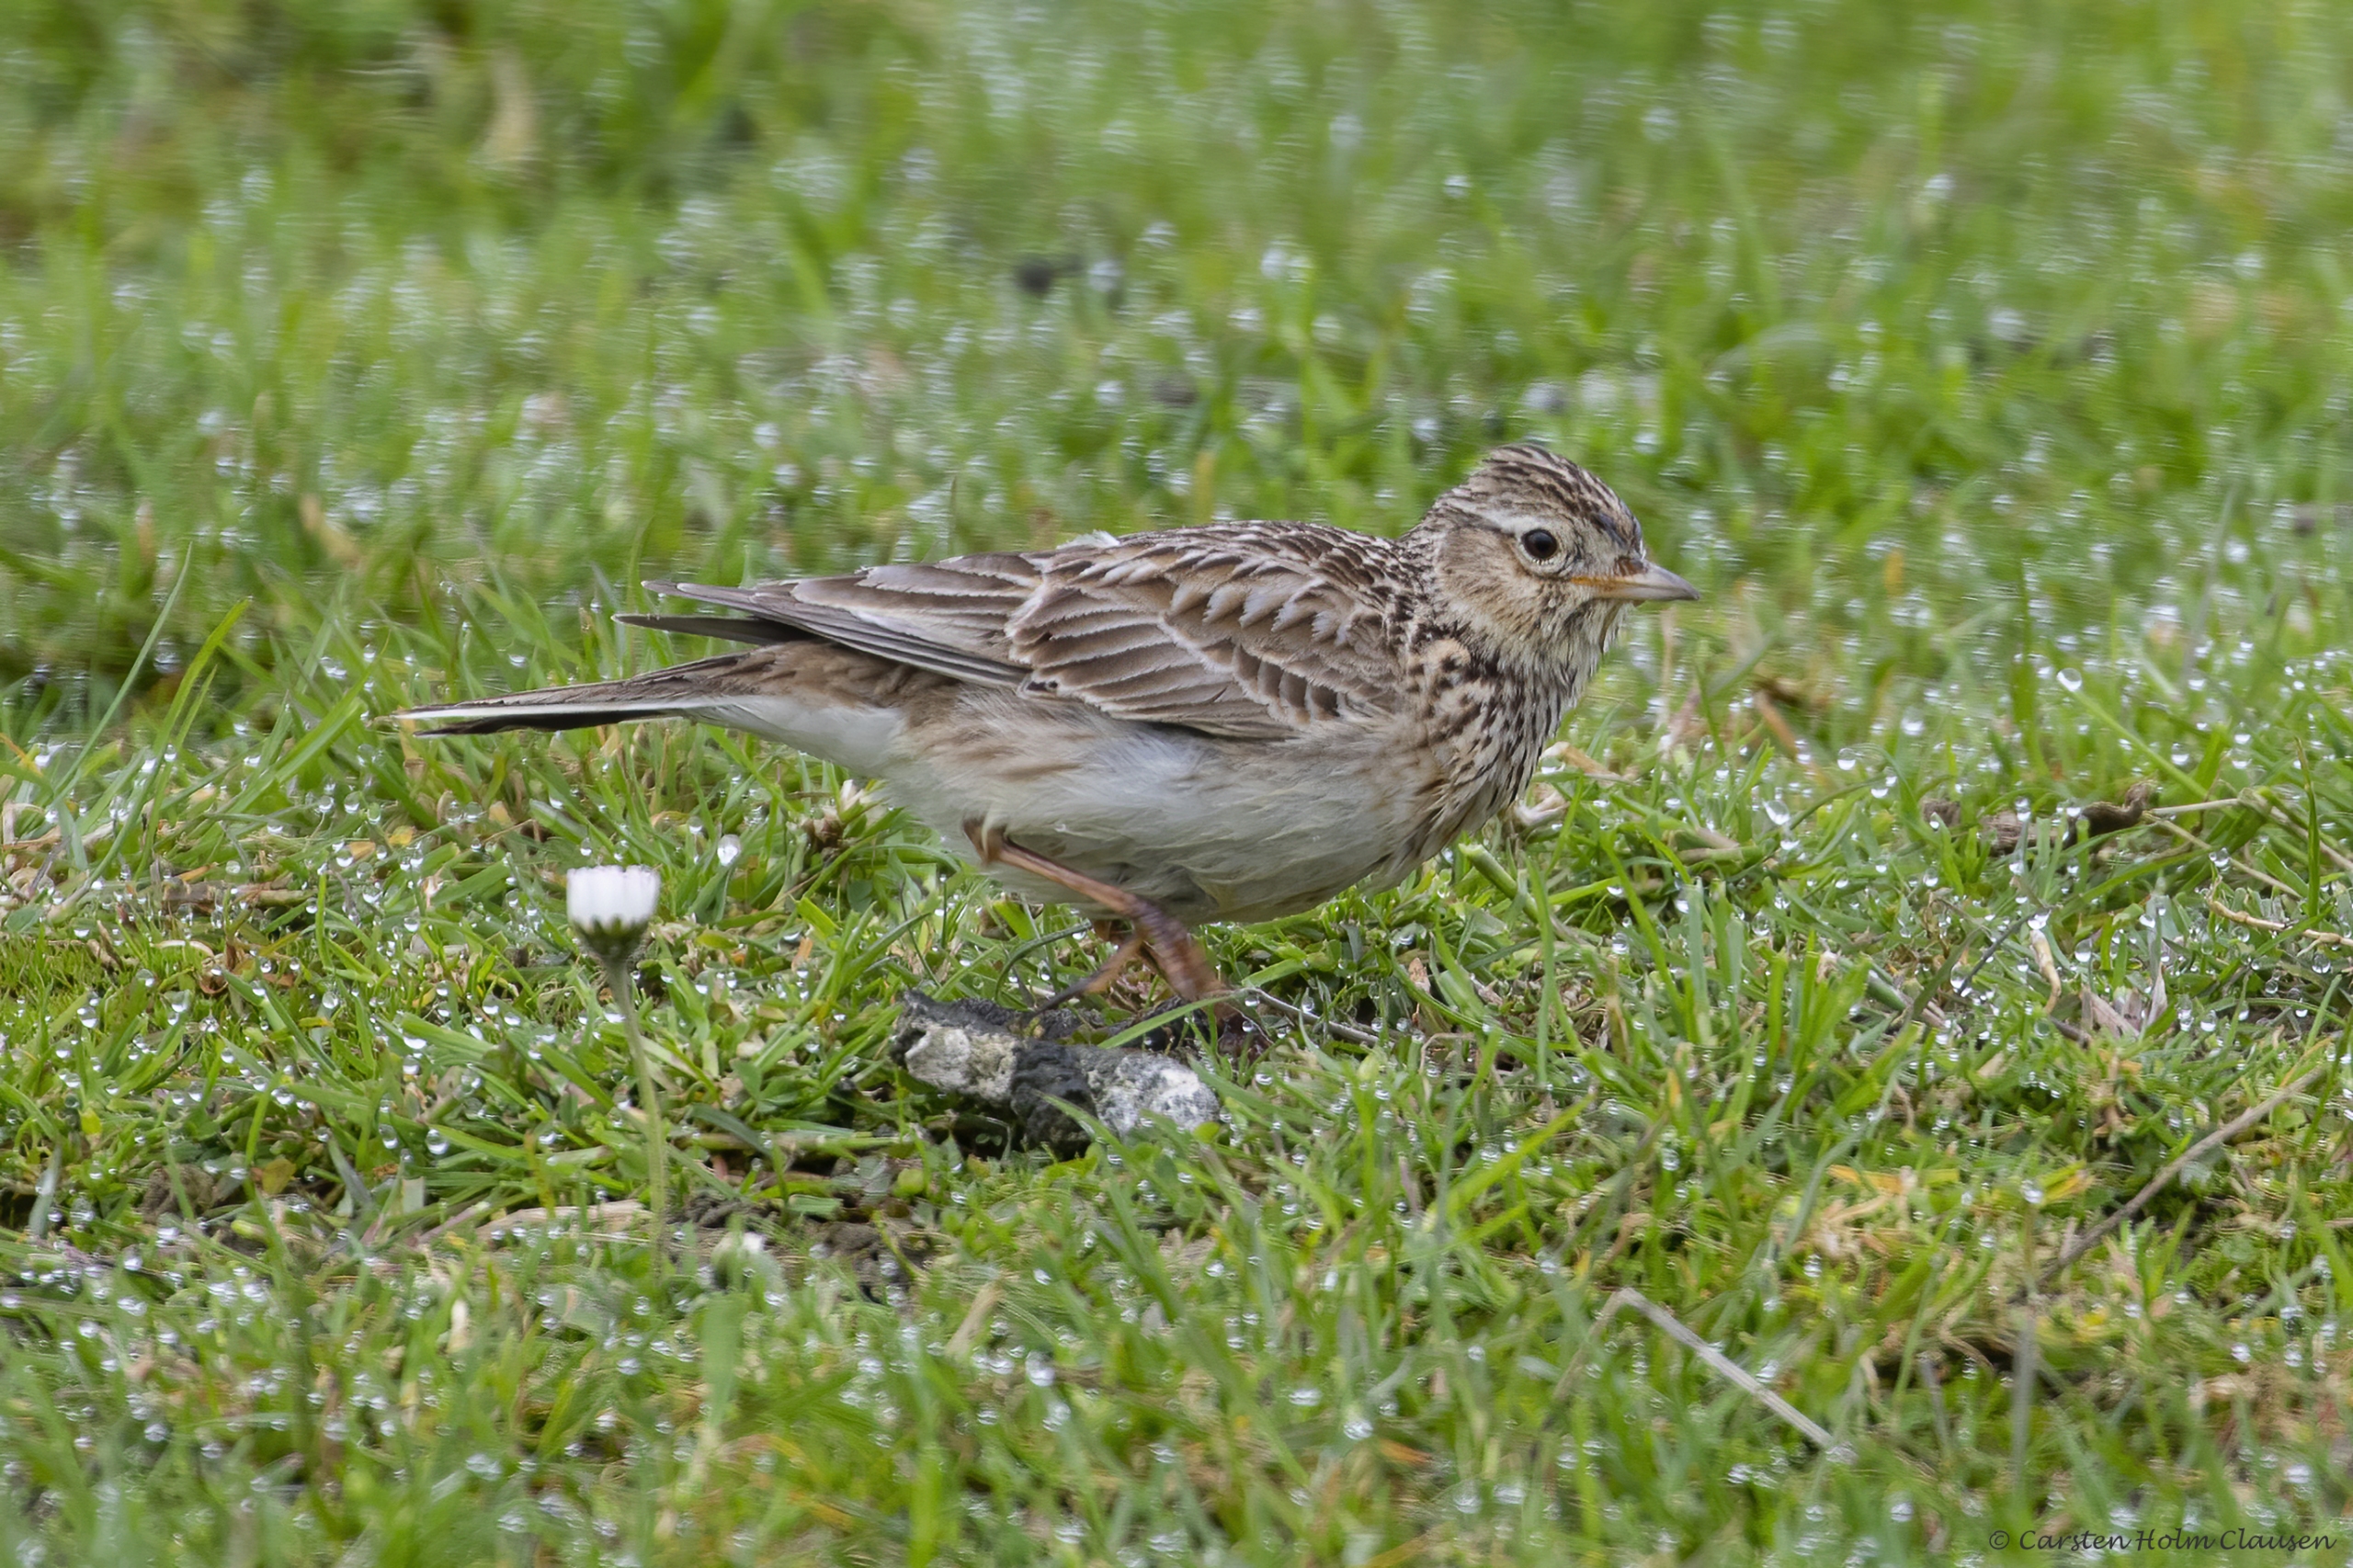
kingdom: Animalia
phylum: Chordata
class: Aves
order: Passeriformes
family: Alaudidae
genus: Alauda
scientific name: Alauda arvensis
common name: Sanglærke
